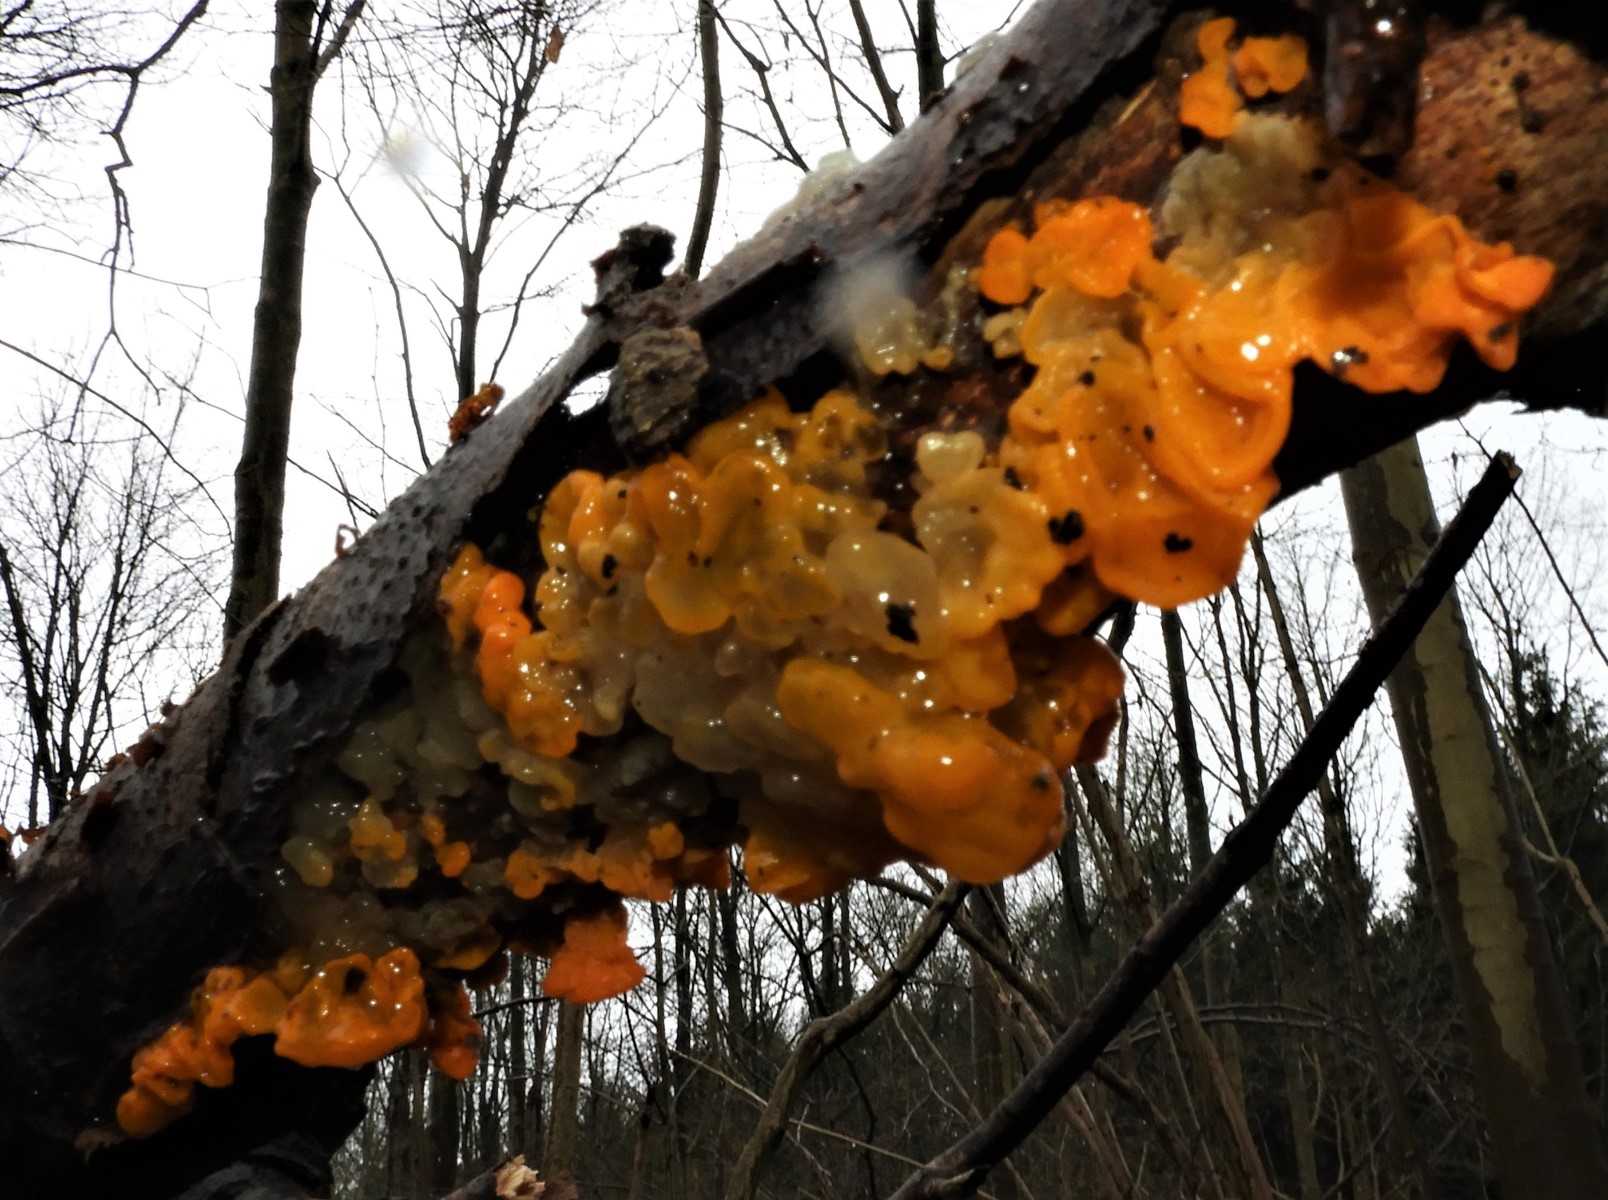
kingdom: Fungi
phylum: Basidiomycota
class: Tremellomycetes
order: Tremellales
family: Tremellaceae
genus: Tremella
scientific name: Tremella mesenterica
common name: gul bævresvamp
